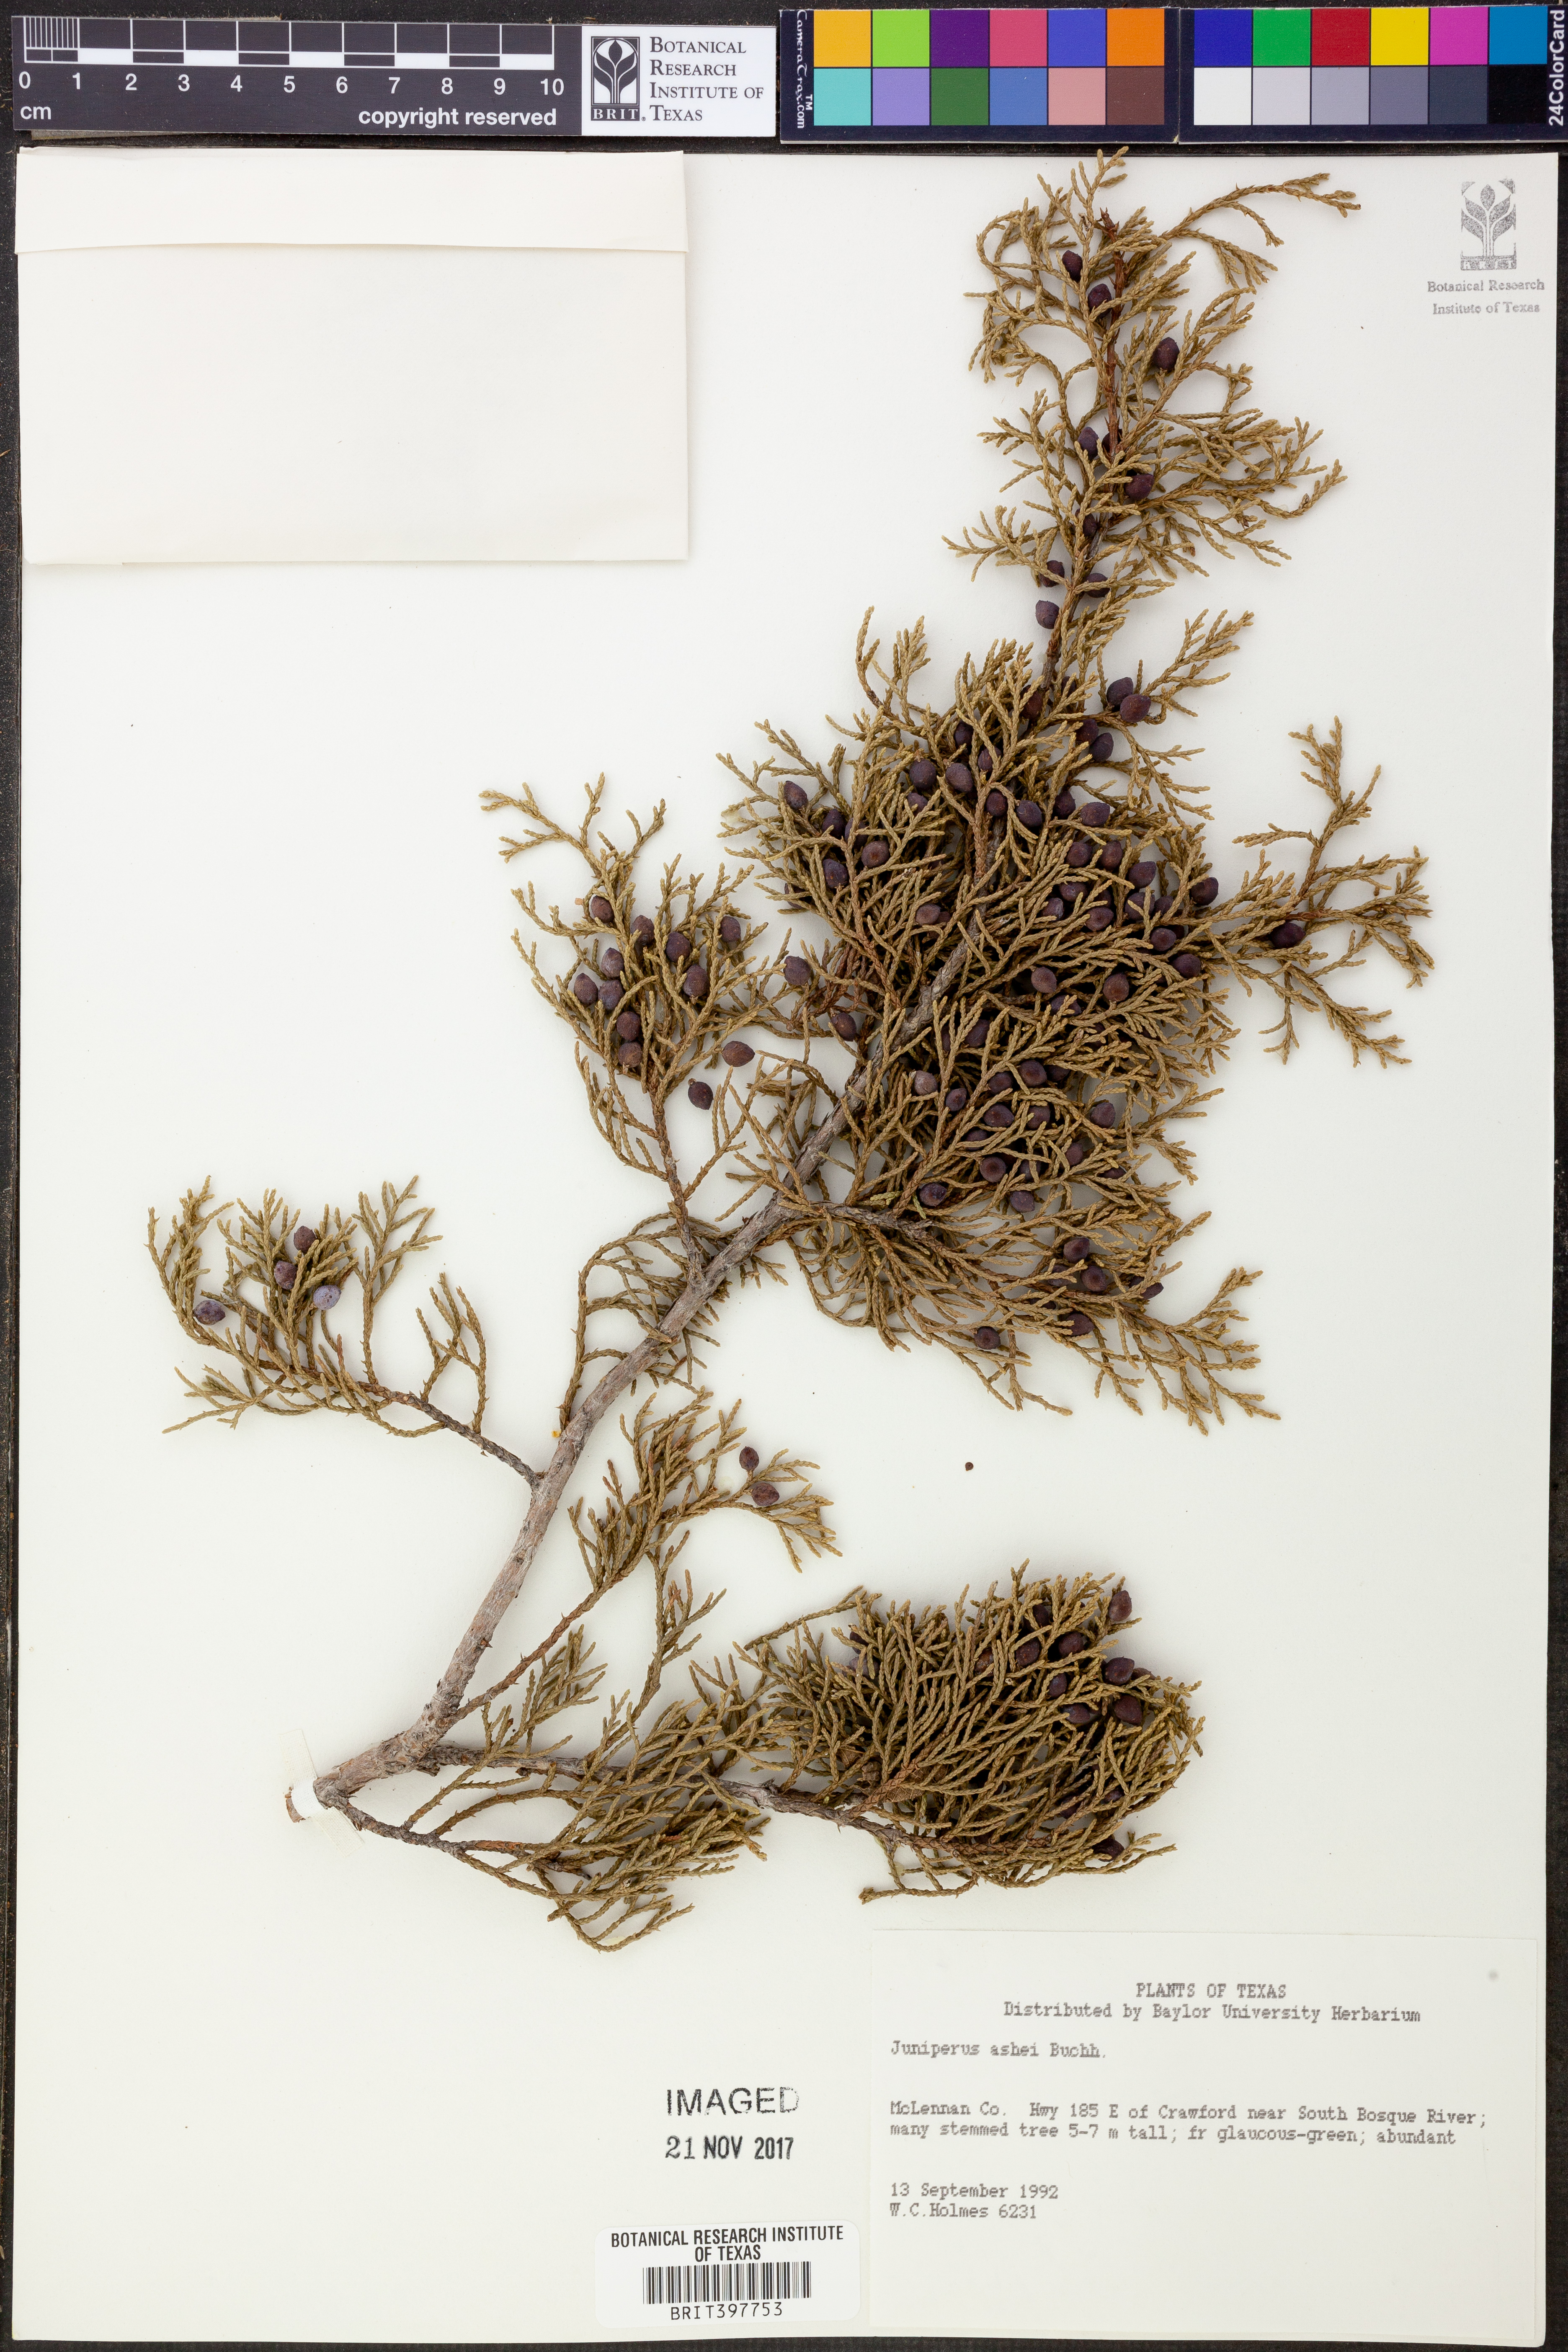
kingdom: Plantae
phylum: Tracheophyta
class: Pinopsida
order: Pinales
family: Cupressaceae
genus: Juniperus
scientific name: Juniperus ashei
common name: Mexican juniper
